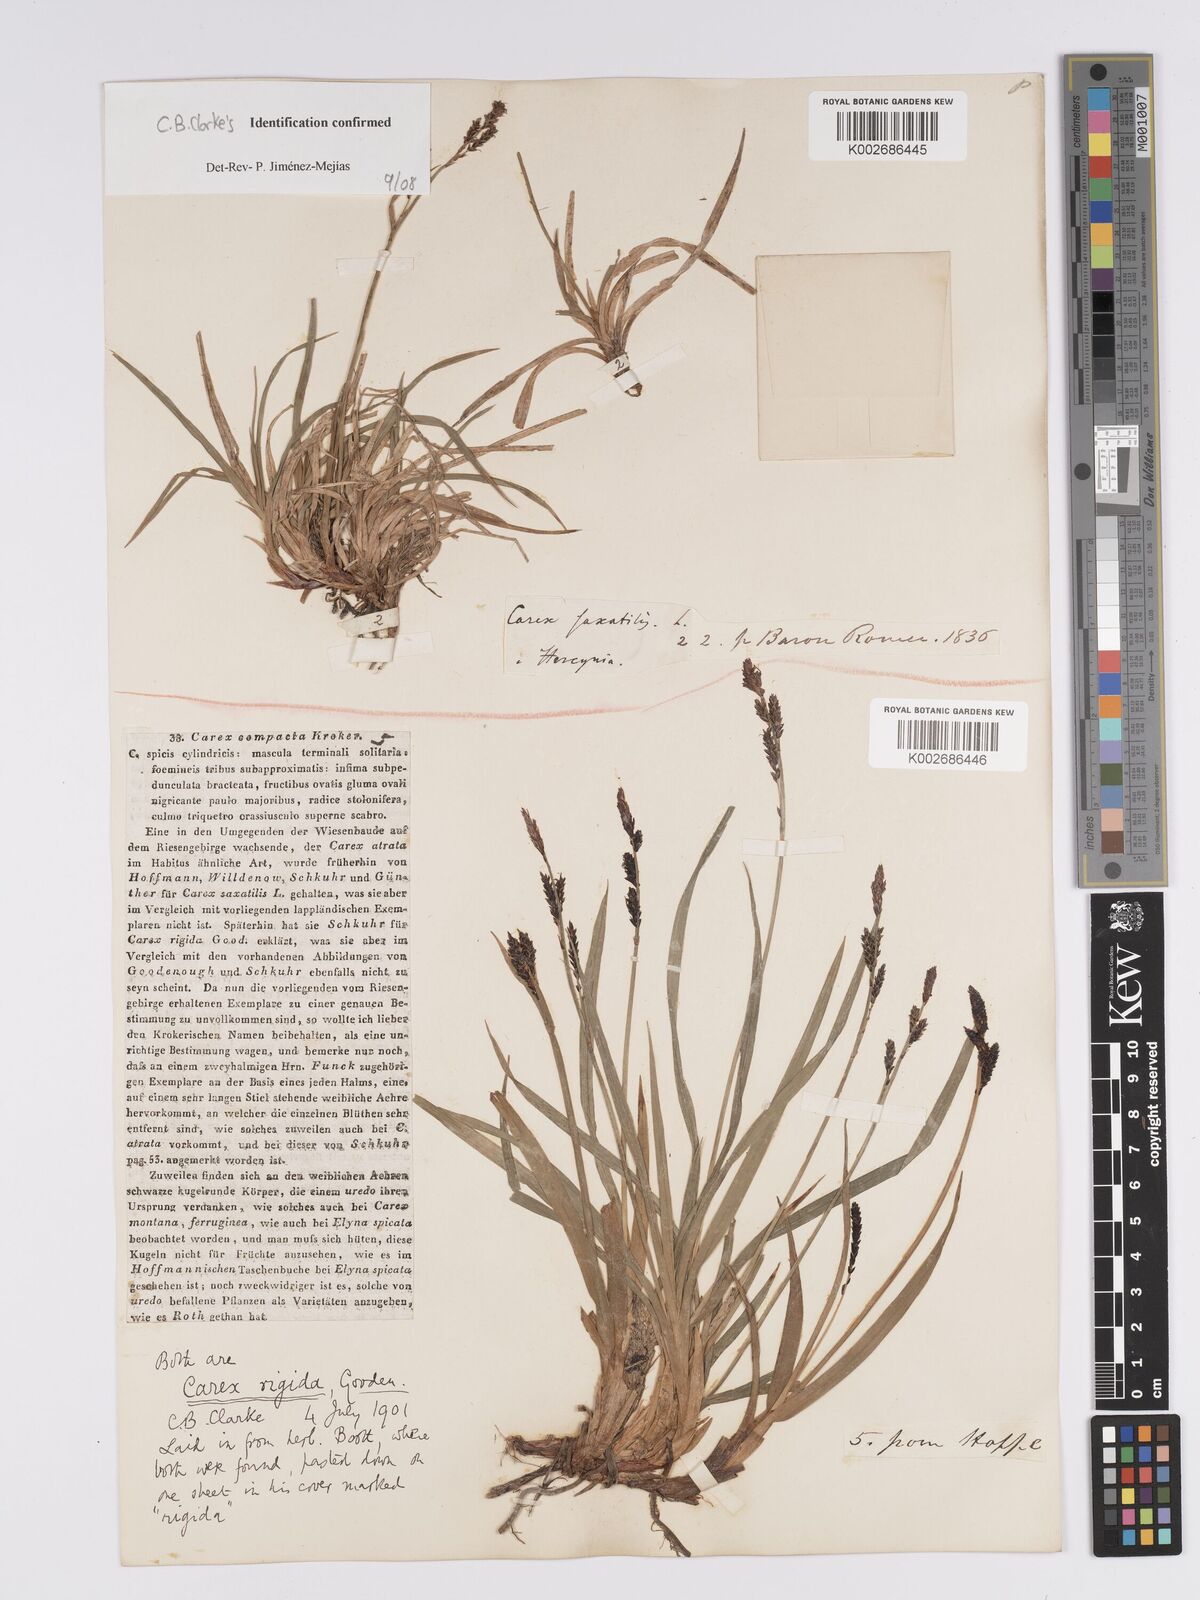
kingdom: Plantae
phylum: Tracheophyta
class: Liliopsida
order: Poales
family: Cyperaceae
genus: Carex
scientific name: Carex bigelowii
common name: Stiff sedge
